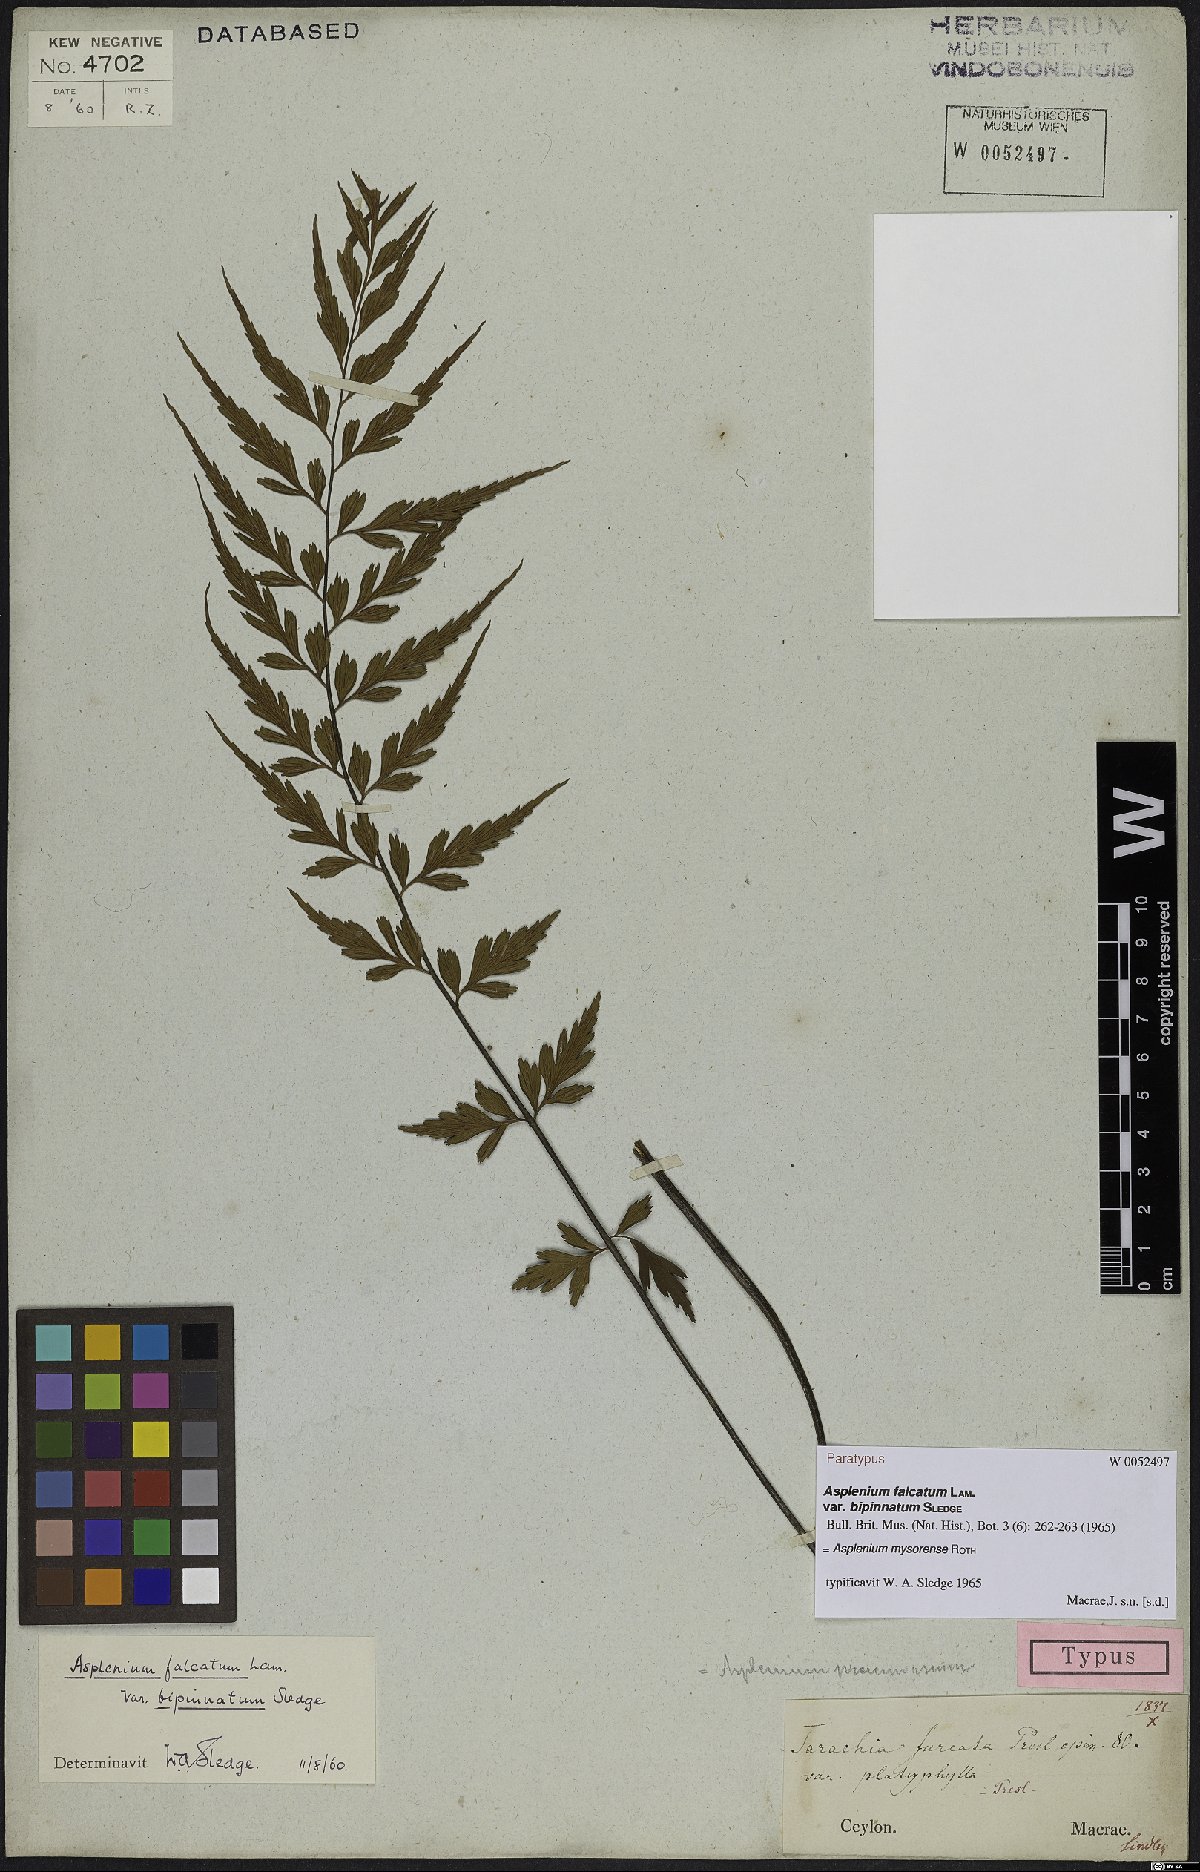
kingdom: Plantae
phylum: Tracheophyta
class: Polypodiopsida
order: Polypodiales
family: Aspleniaceae
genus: Asplenium
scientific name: Asplenium mysorense
